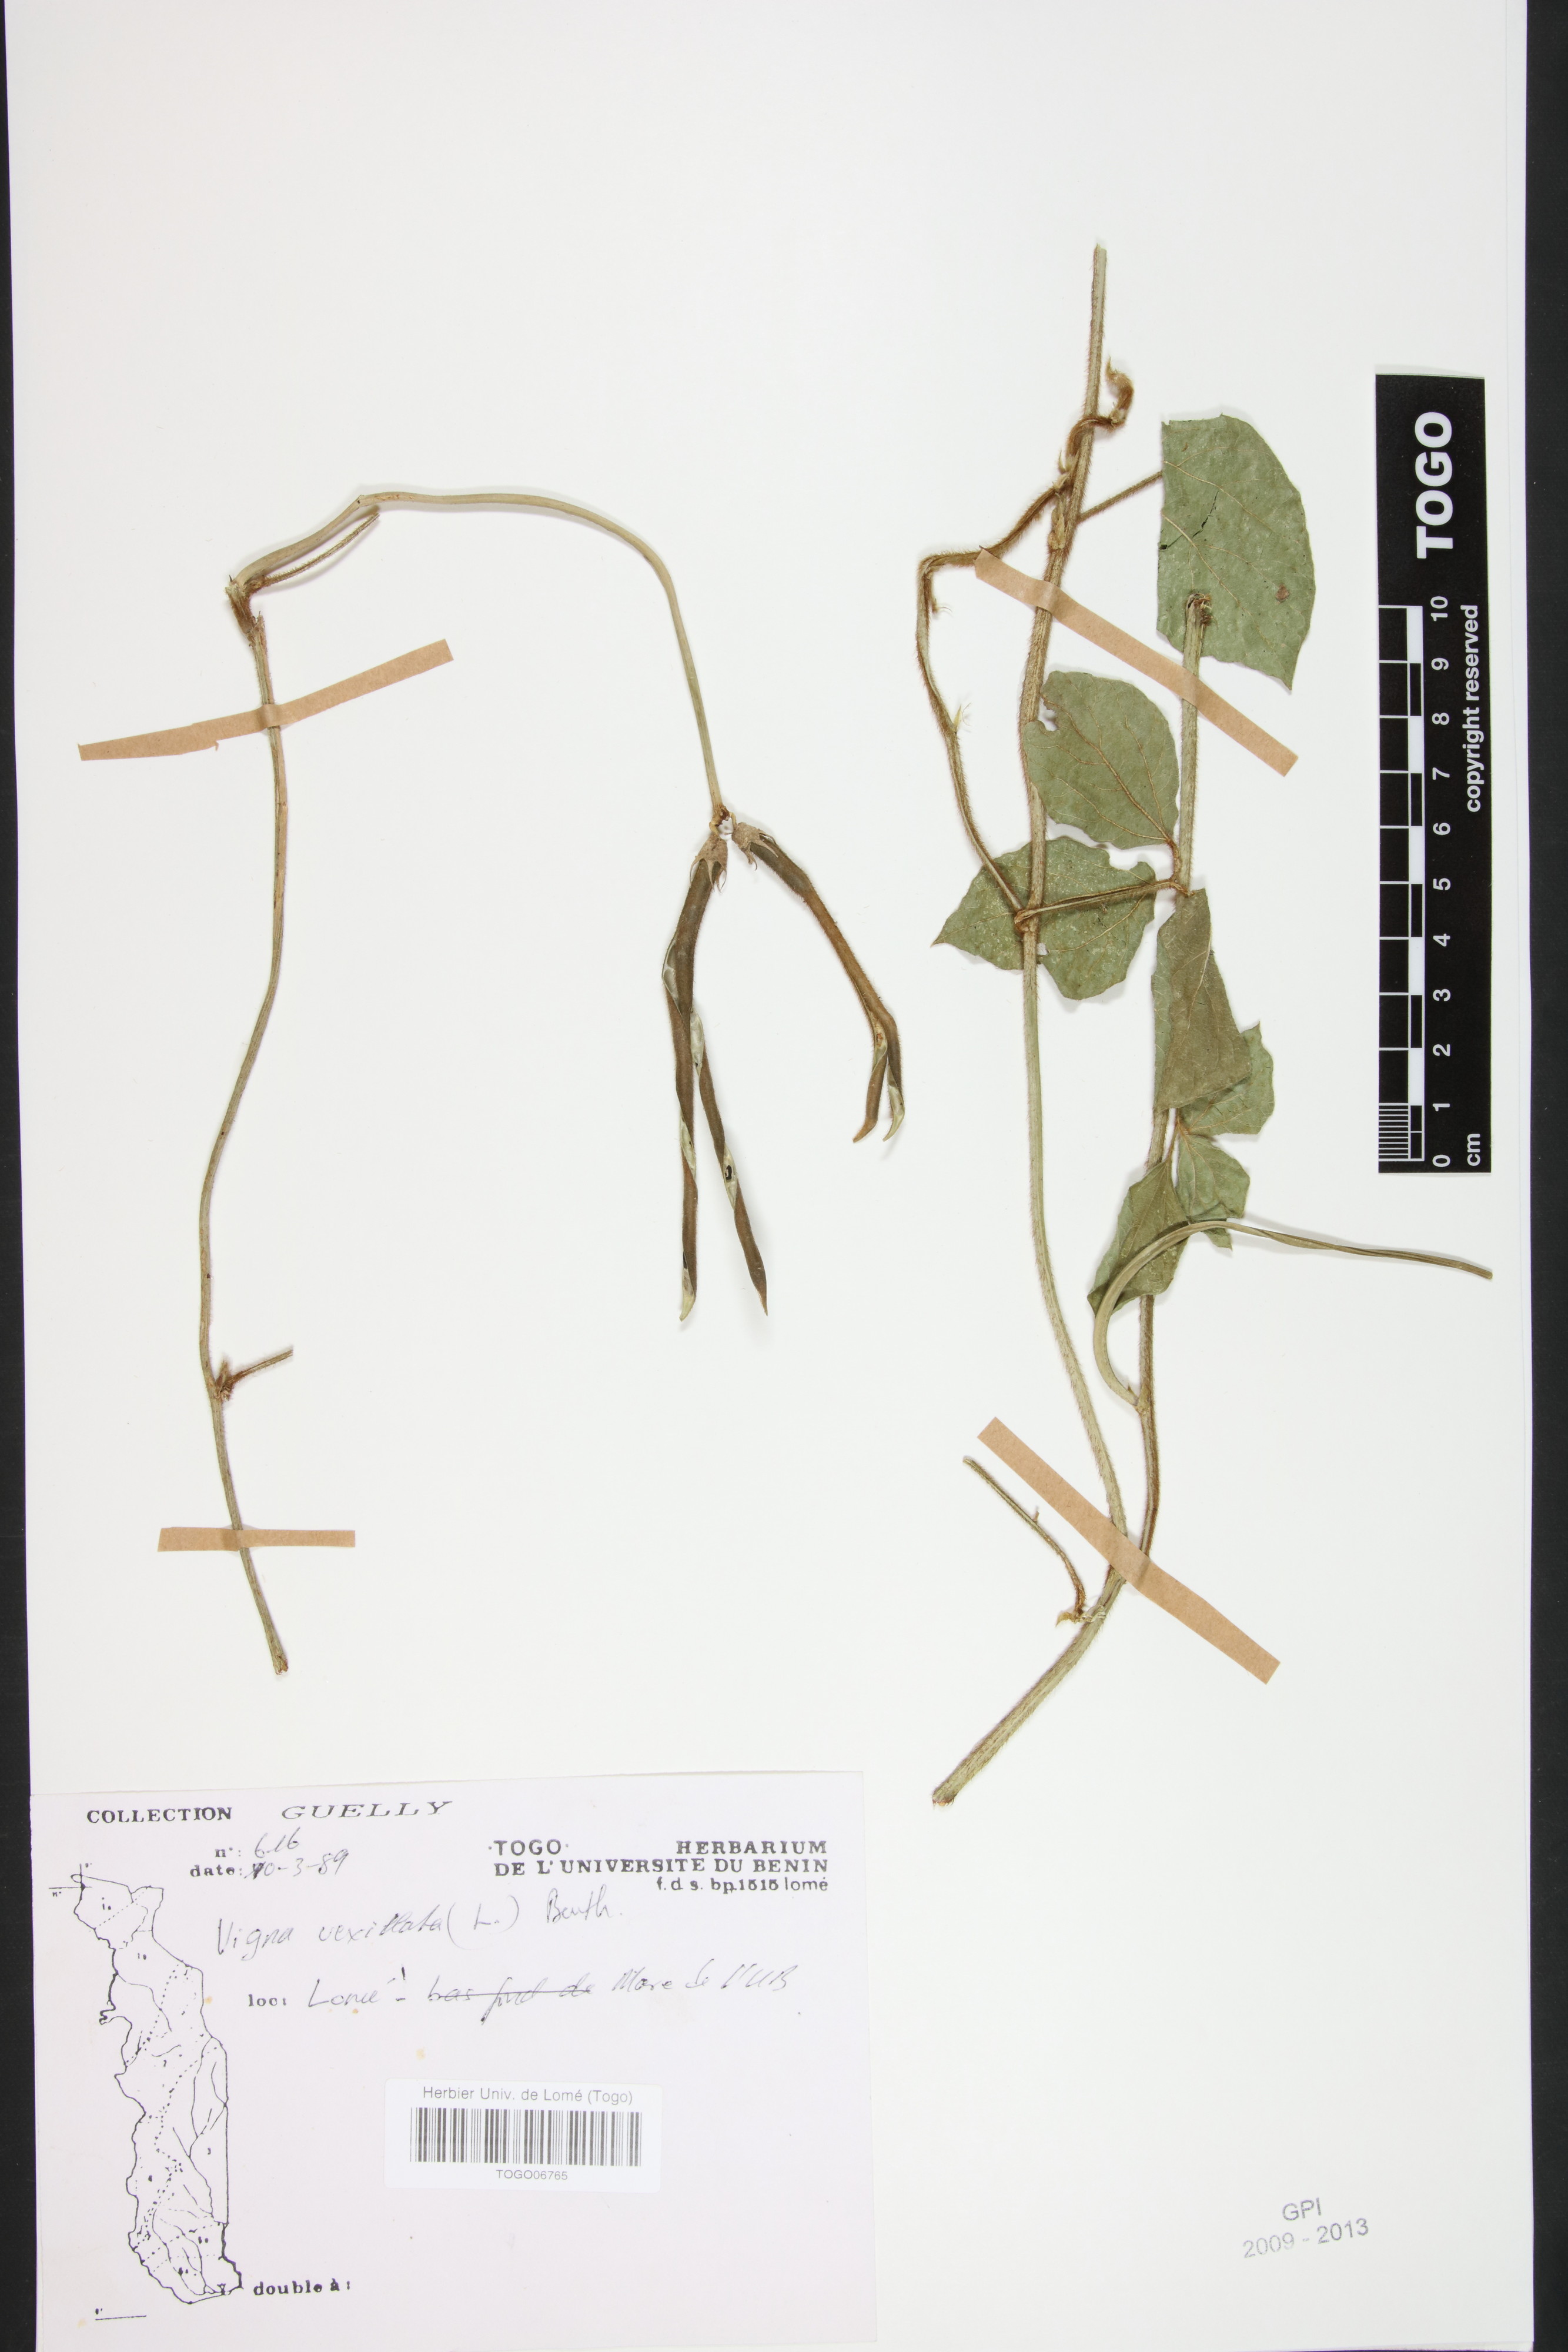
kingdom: Plantae
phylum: Tracheophyta
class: Magnoliopsida
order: Fabales
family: Fabaceae
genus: Vigna
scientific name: Vigna vexillata
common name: Zombi pea
